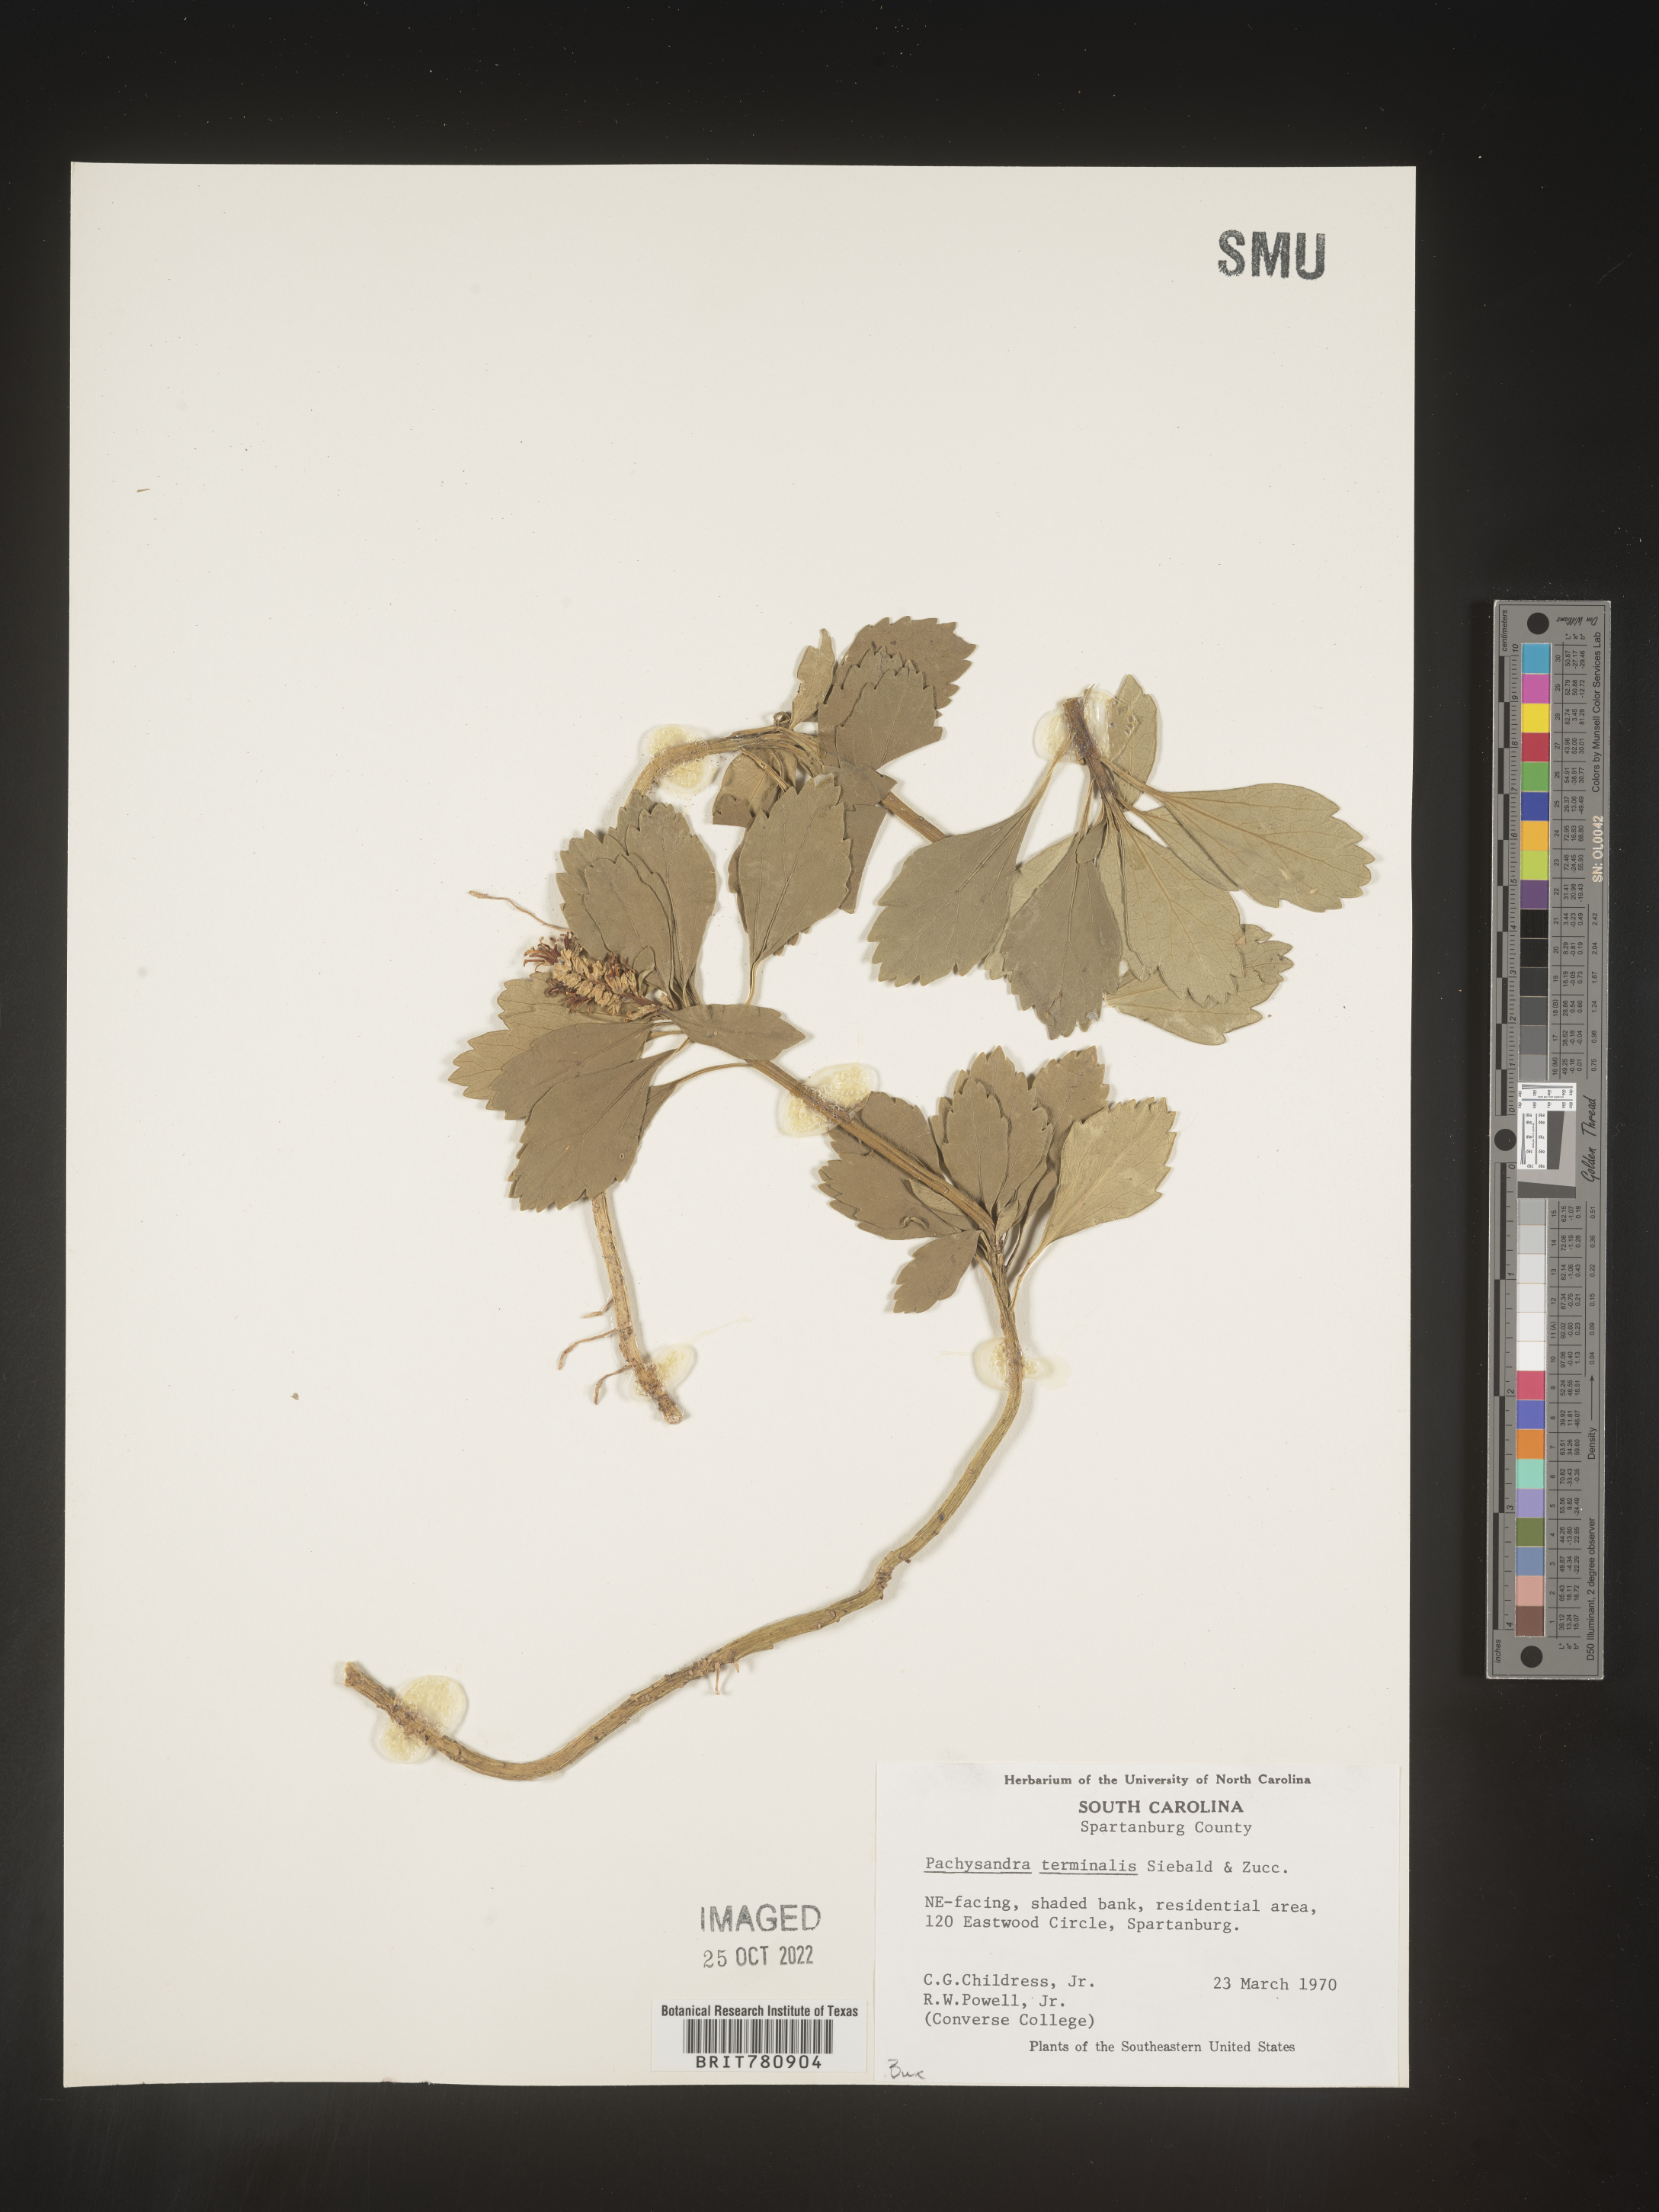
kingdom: Plantae
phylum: Tracheophyta
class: Magnoliopsida
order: Buxales
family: Buxaceae
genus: Pachysandra
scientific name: Pachysandra
